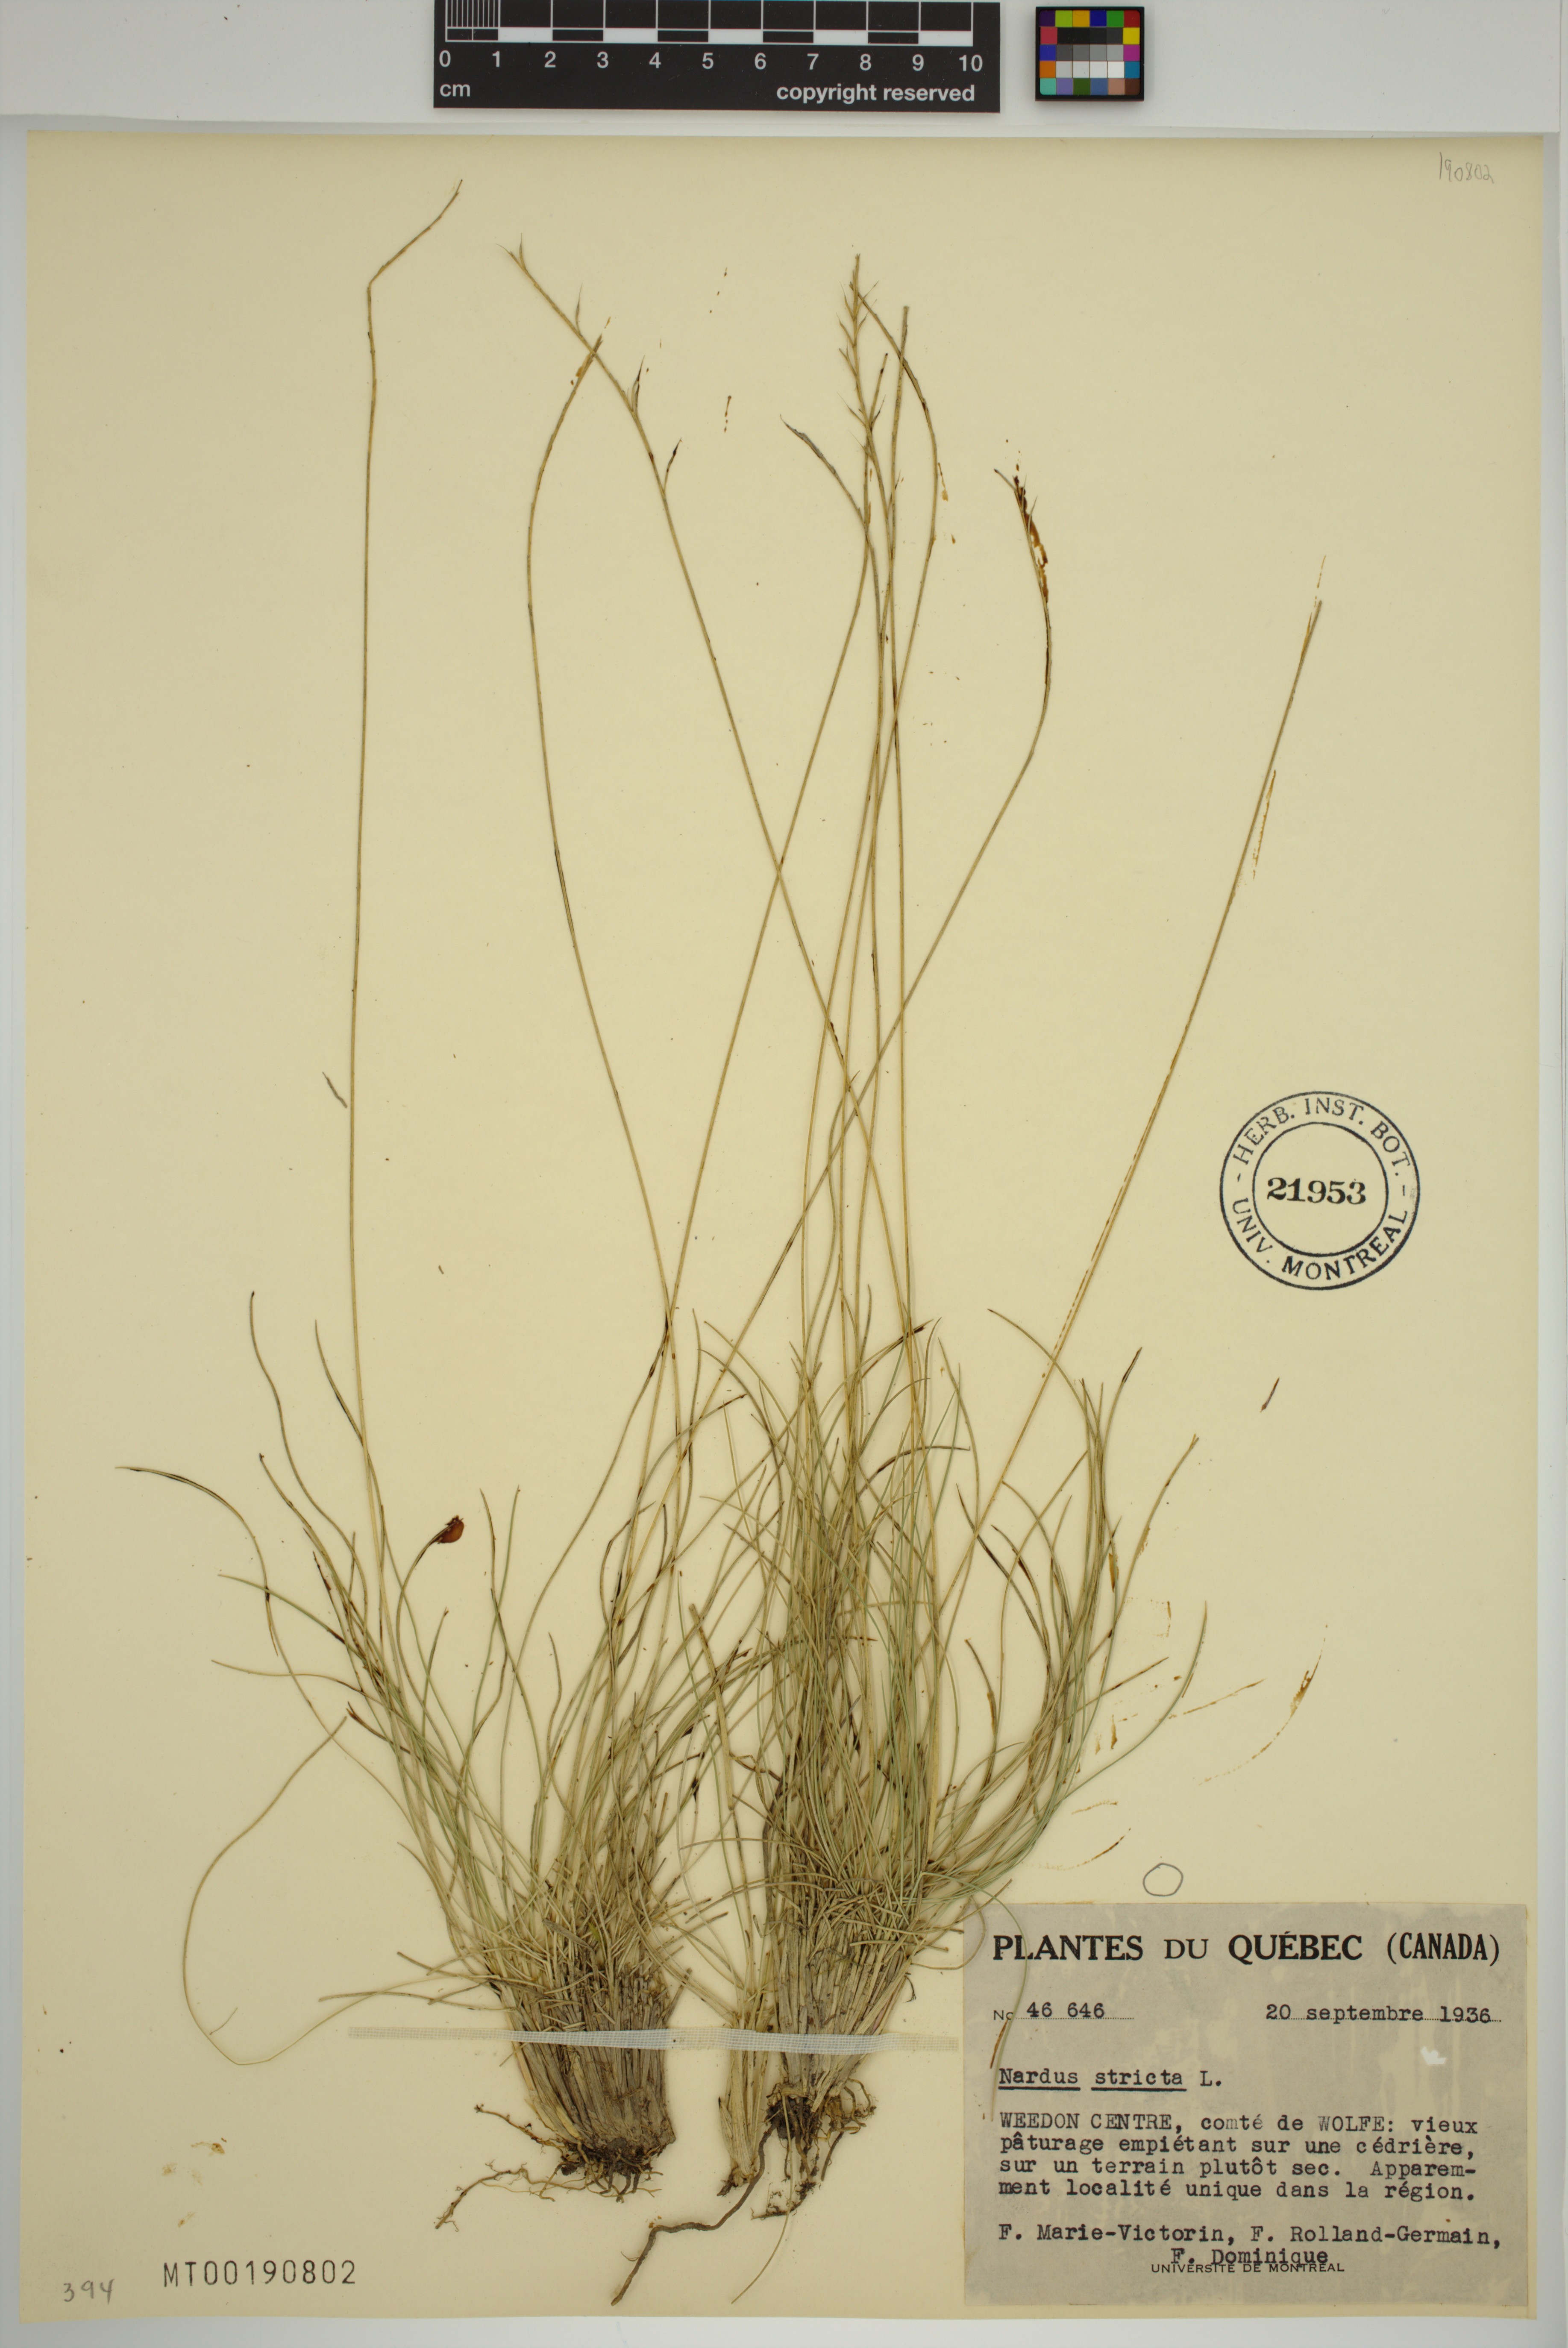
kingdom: Plantae
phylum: Tracheophyta
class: Liliopsida
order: Poales
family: Poaceae
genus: Nardus
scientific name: Nardus stricta
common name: Mat-grass
